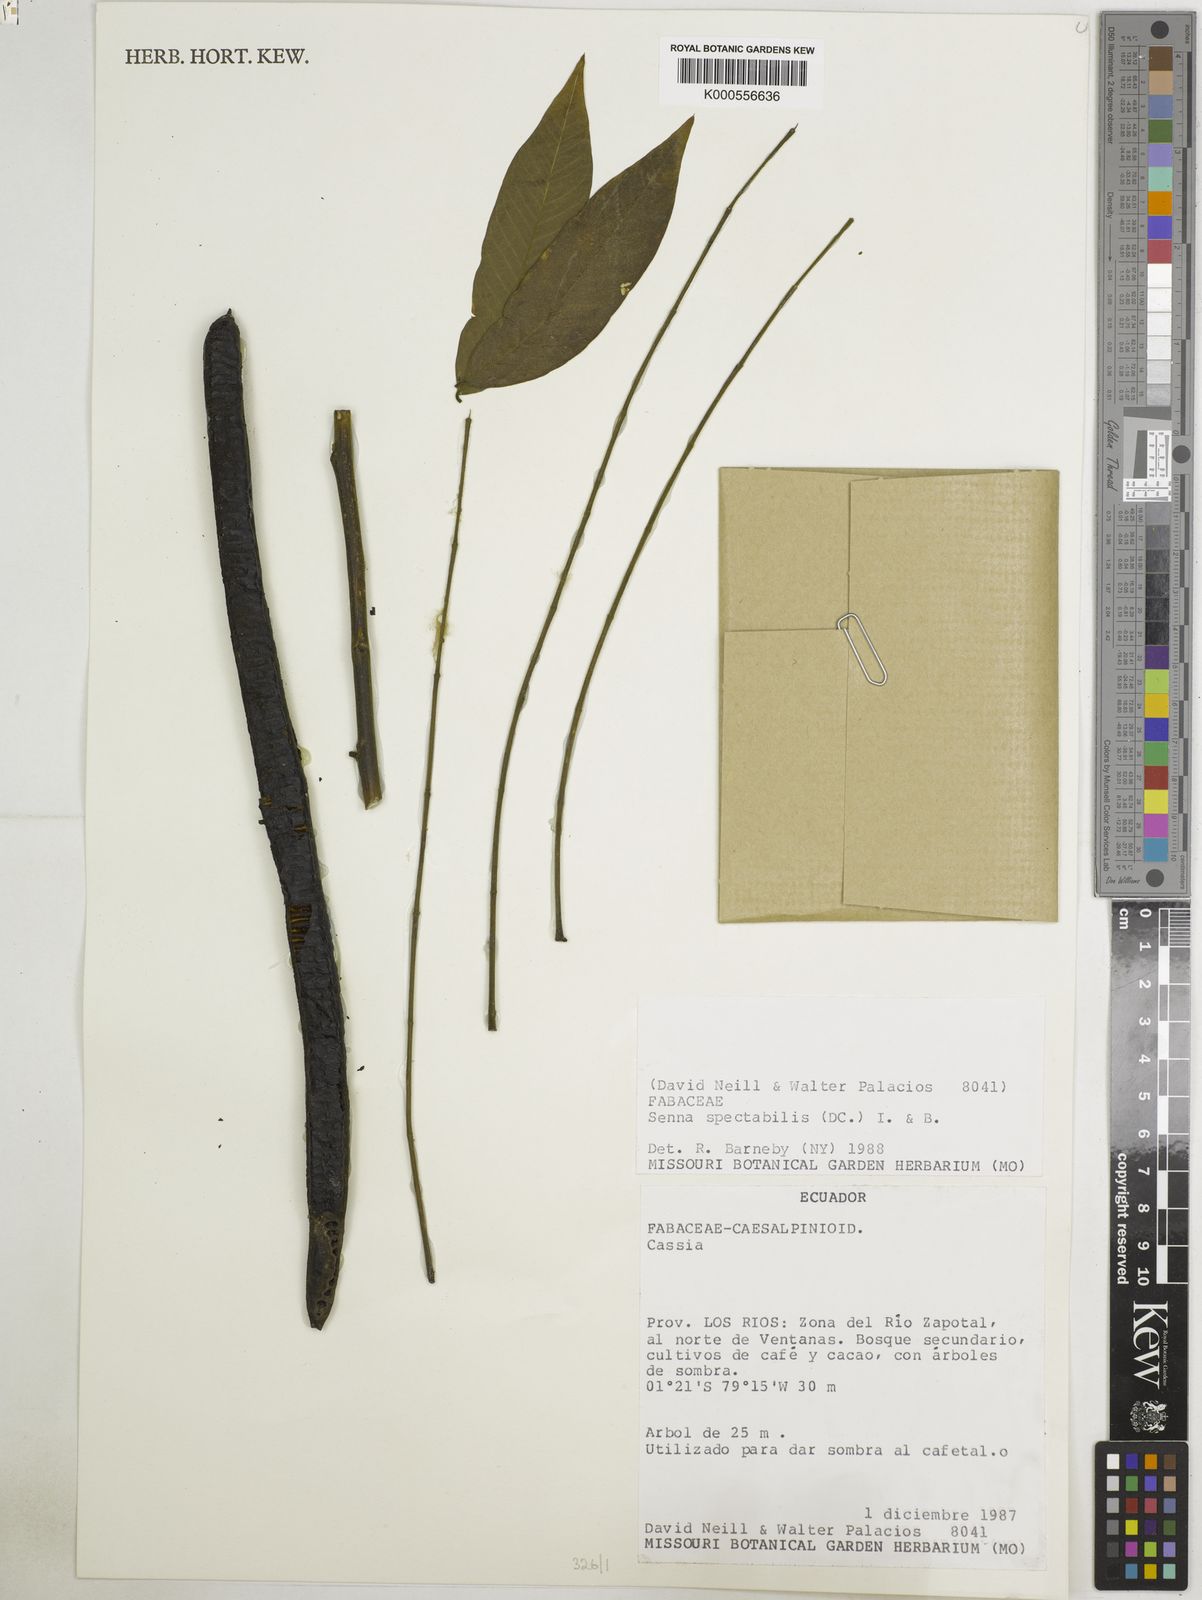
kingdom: Plantae
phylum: Tracheophyta
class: Magnoliopsida
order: Fabales
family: Fabaceae
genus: Senna
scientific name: Senna spectabilis
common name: Casia amarilla
